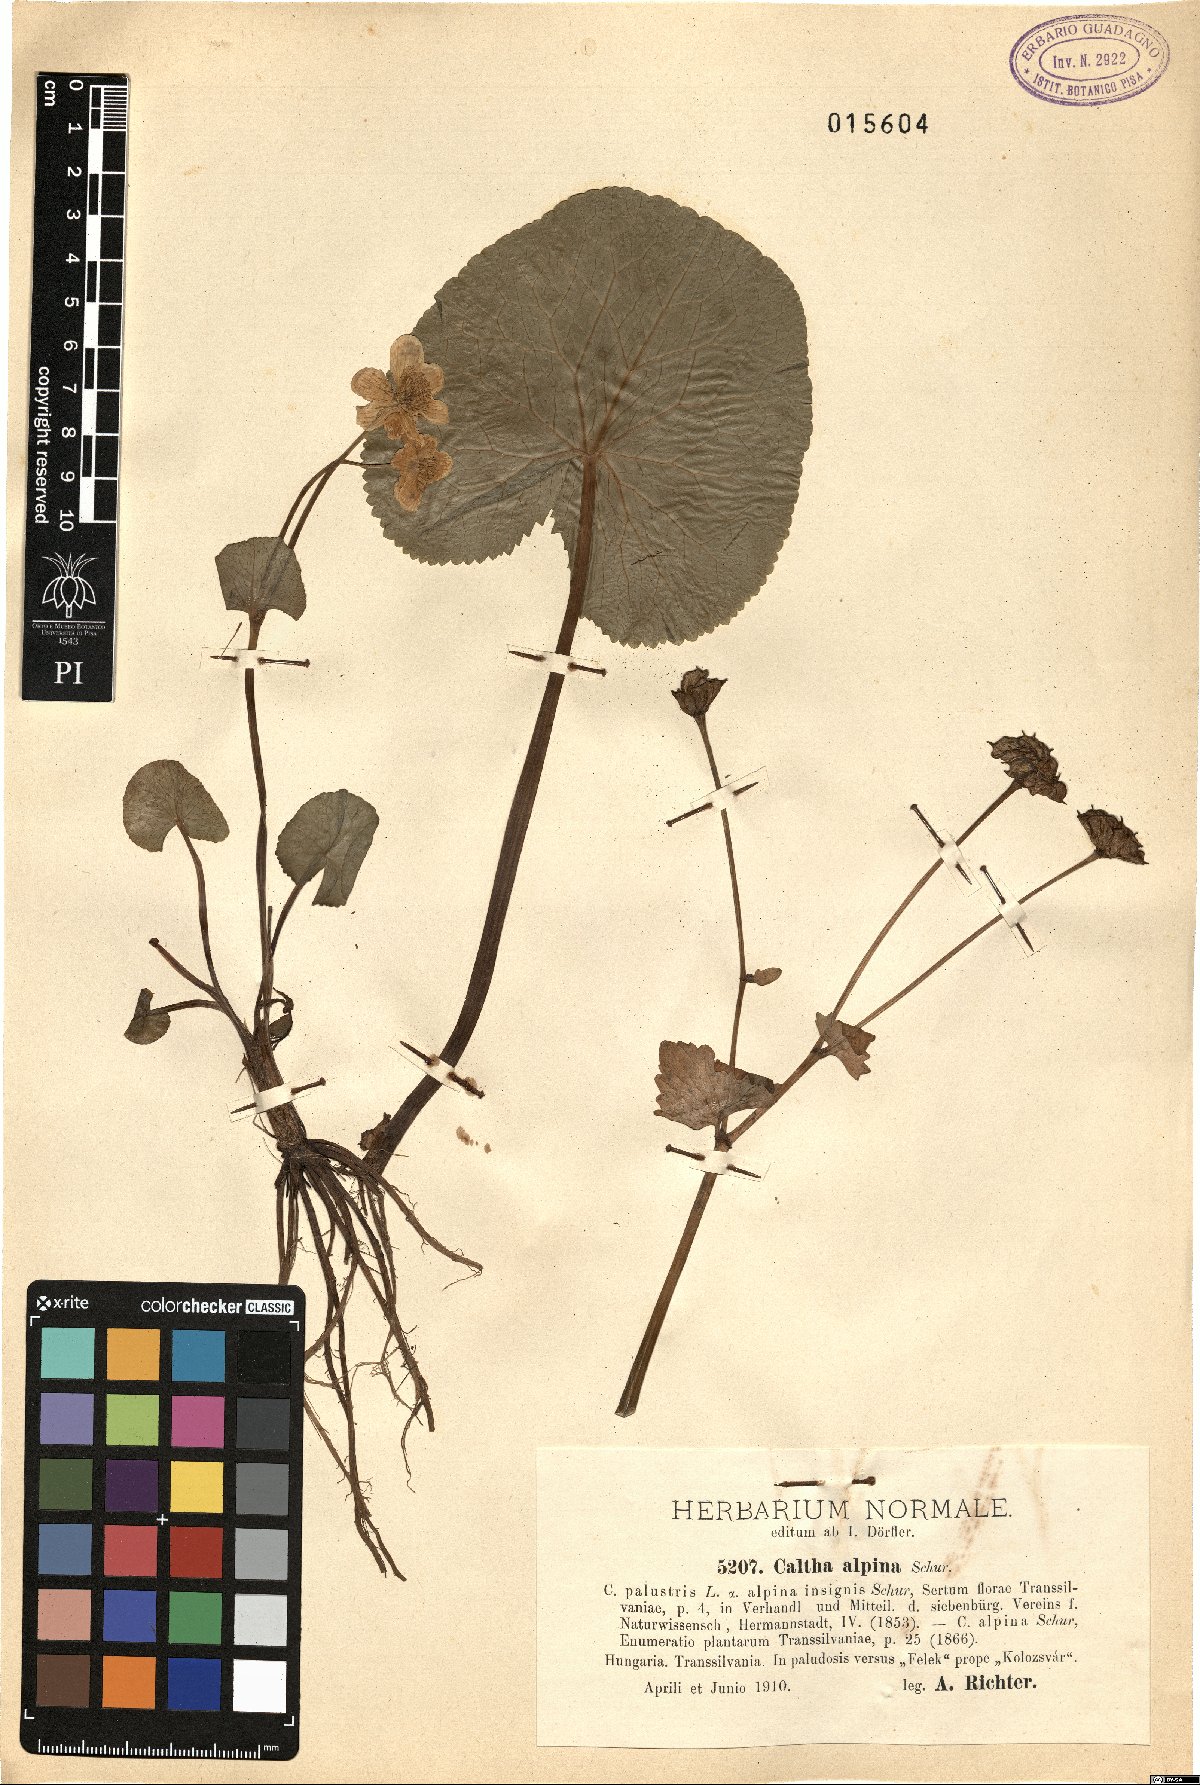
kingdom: Plantae
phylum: Tracheophyta
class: Magnoliopsida
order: Ranunculales
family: Ranunculaceae
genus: Caltha
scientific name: Caltha palustris
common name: Marsh marigold
